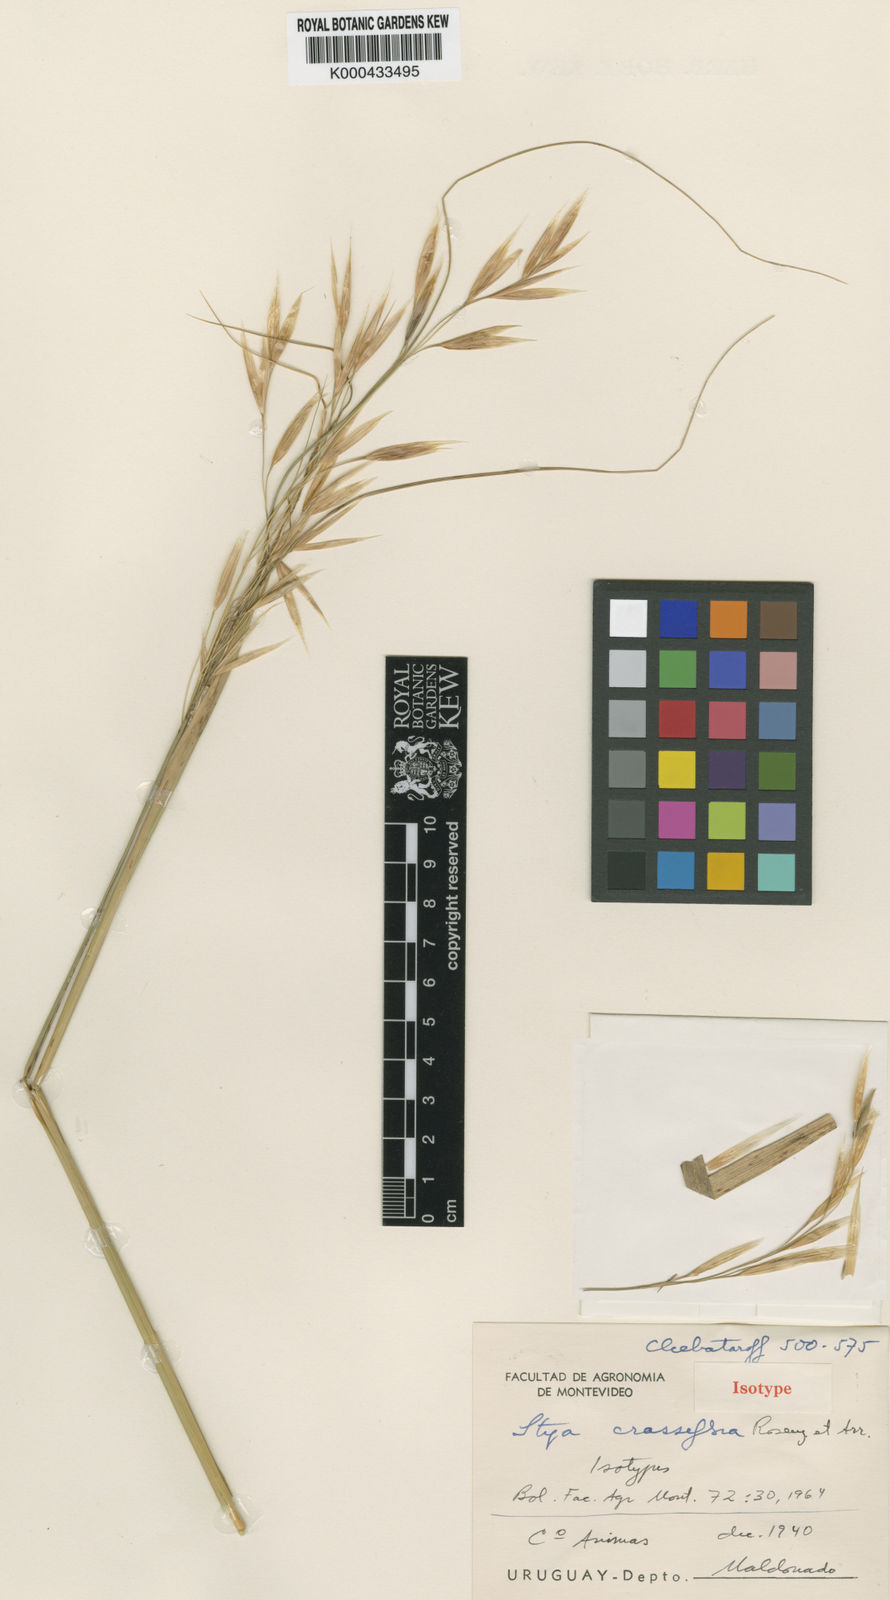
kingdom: Plantae
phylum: Tracheophyta
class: Liliopsida
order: Poales
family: Poaceae
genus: Stipa
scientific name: Stipa
